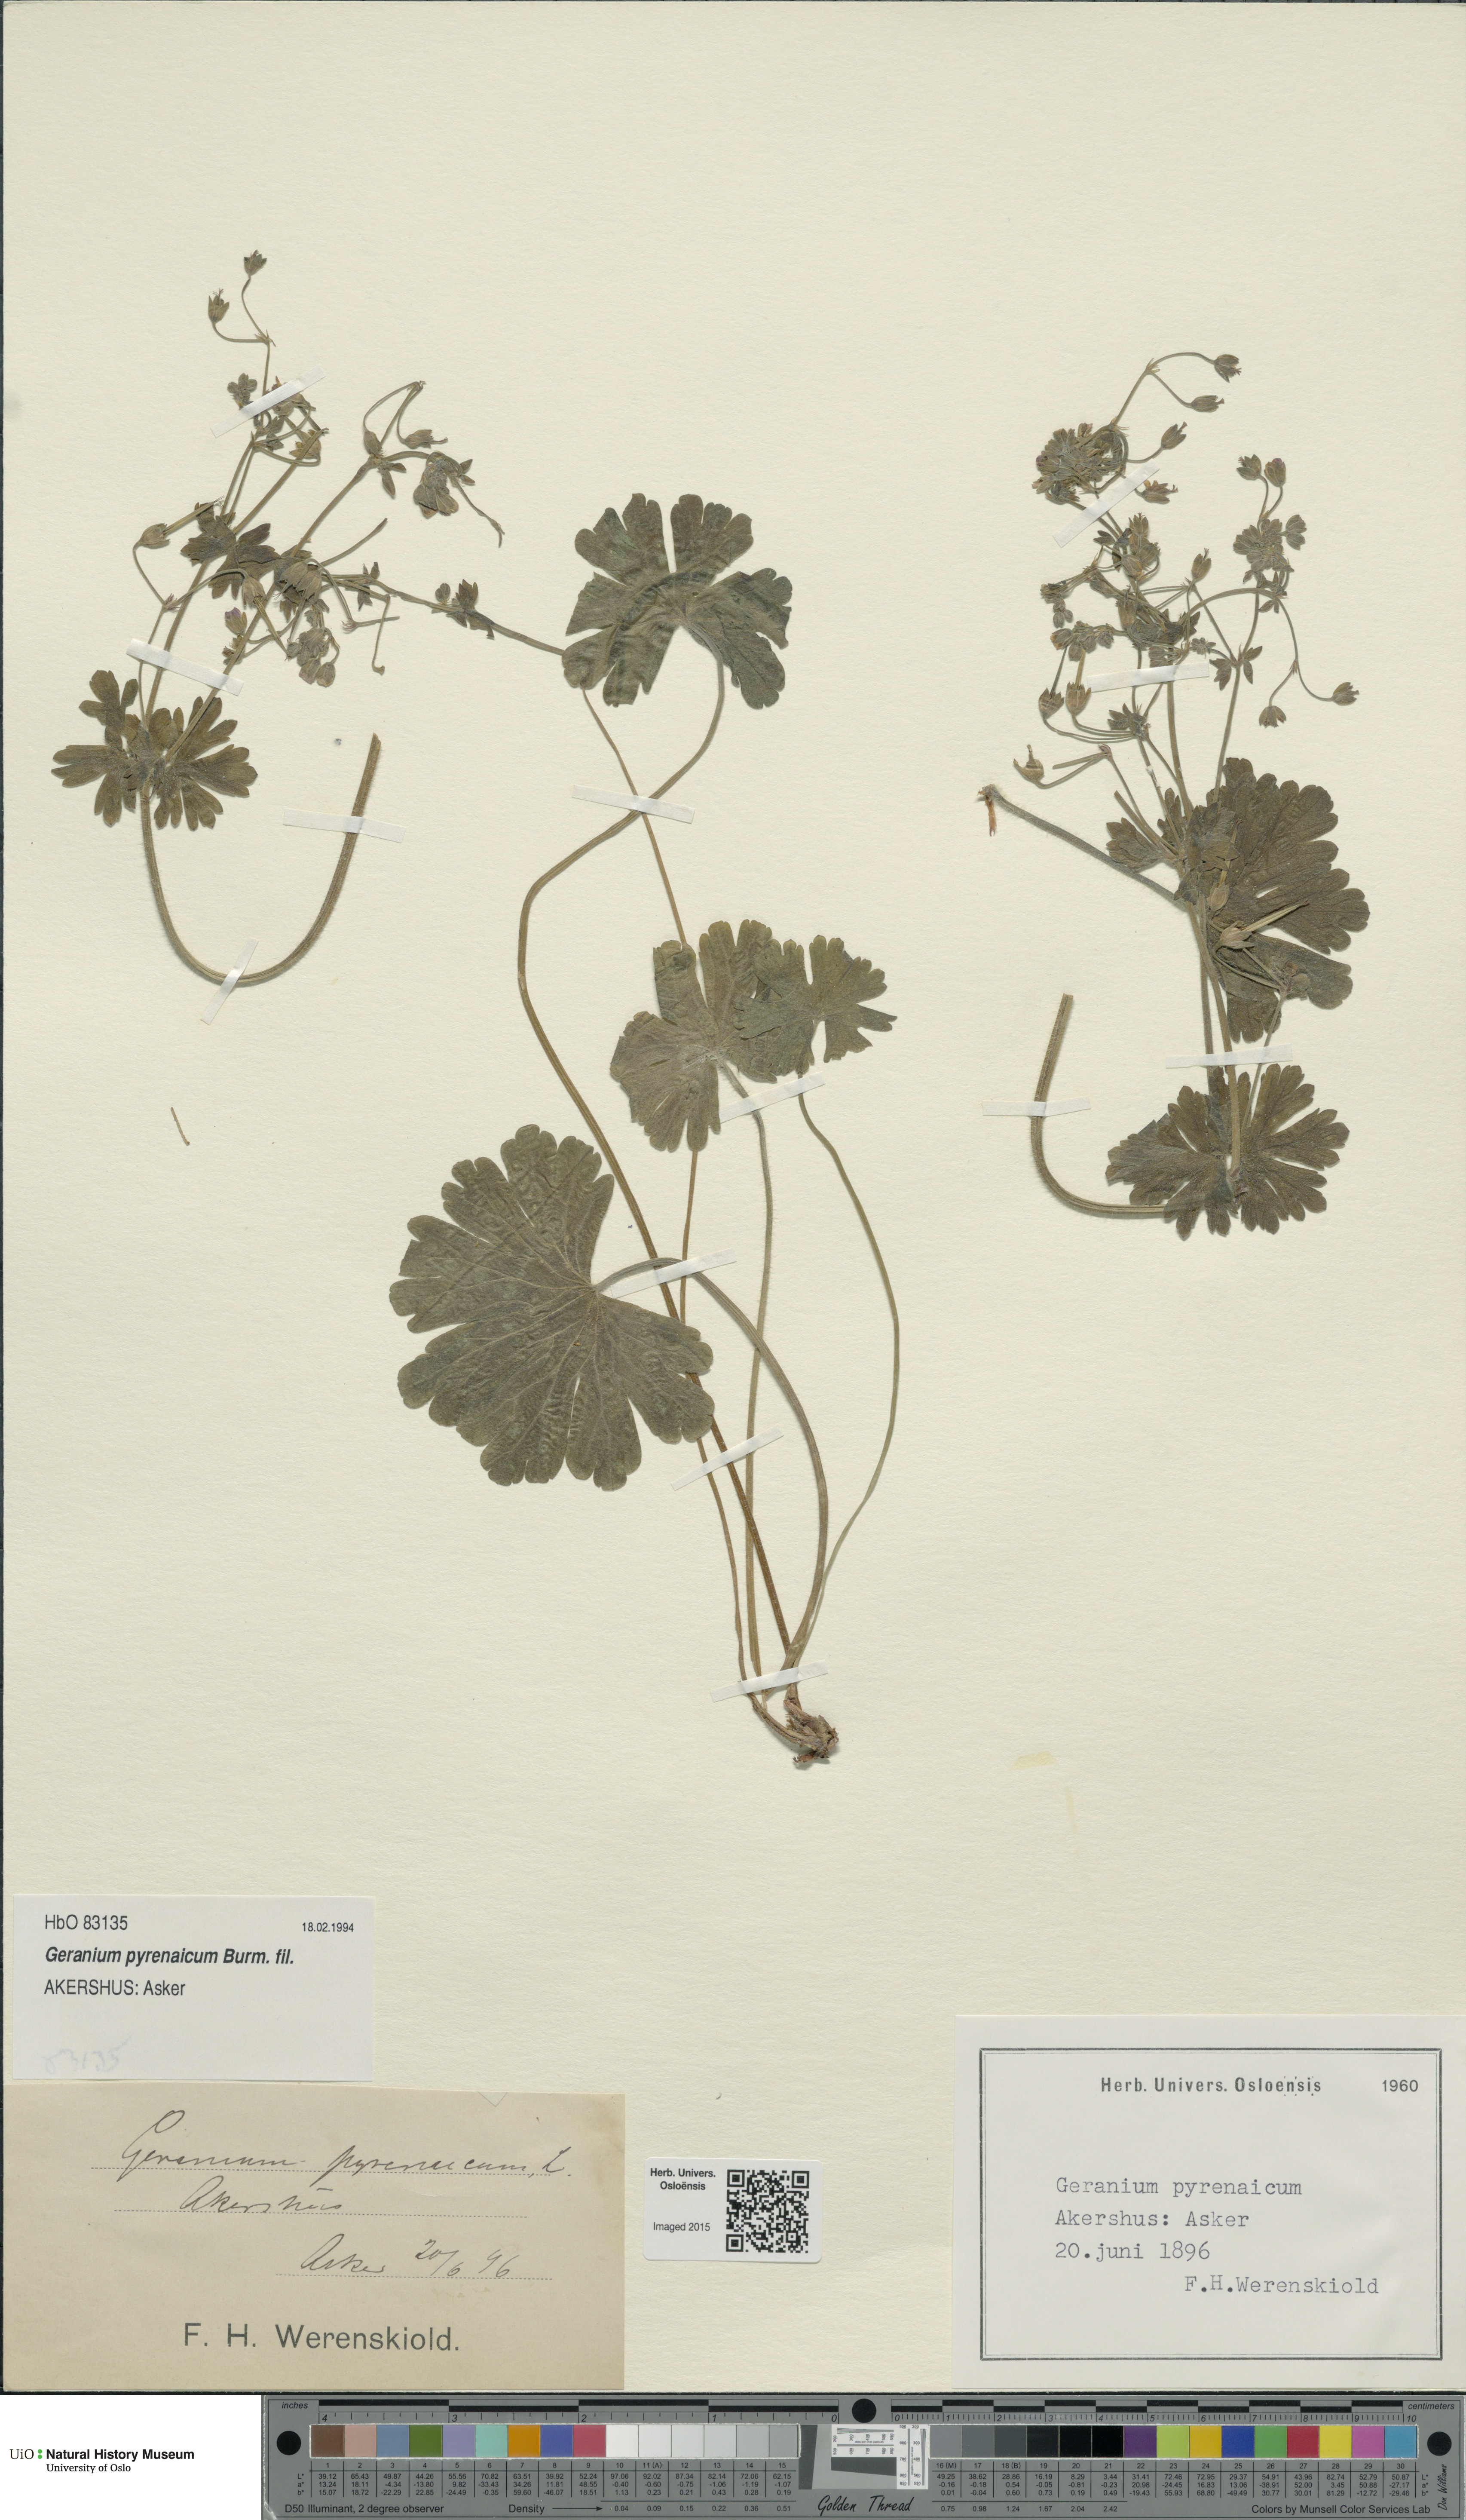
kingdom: Plantae
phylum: Tracheophyta
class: Magnoliopsida
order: Geraniales
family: Geraniaceae
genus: Geranium
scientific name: Geranium pyrenaicum
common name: Hedgerow crane's-bill
